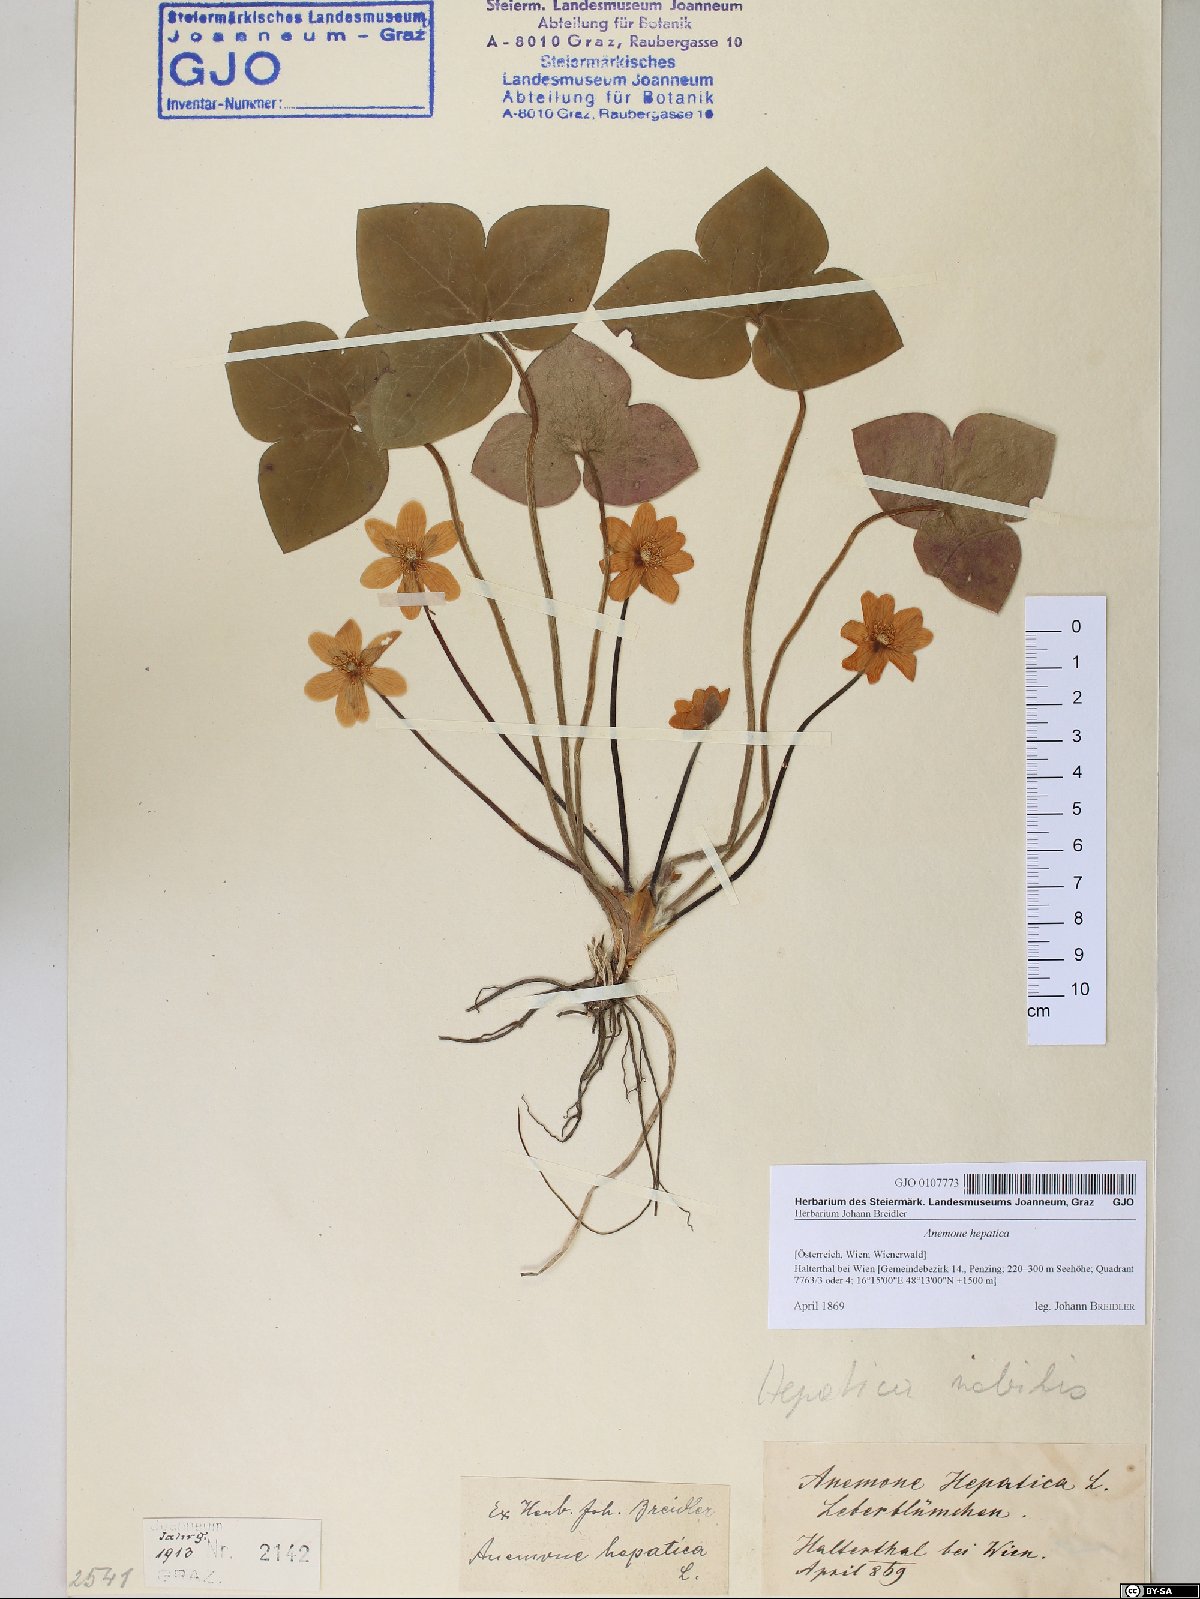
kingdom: Plantae
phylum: Tracheophyta
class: Magnoliopsida
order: Ranunculales
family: Ranunculaceae
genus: Hepatica
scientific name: Hepatica nobilis
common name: Liverleaf
